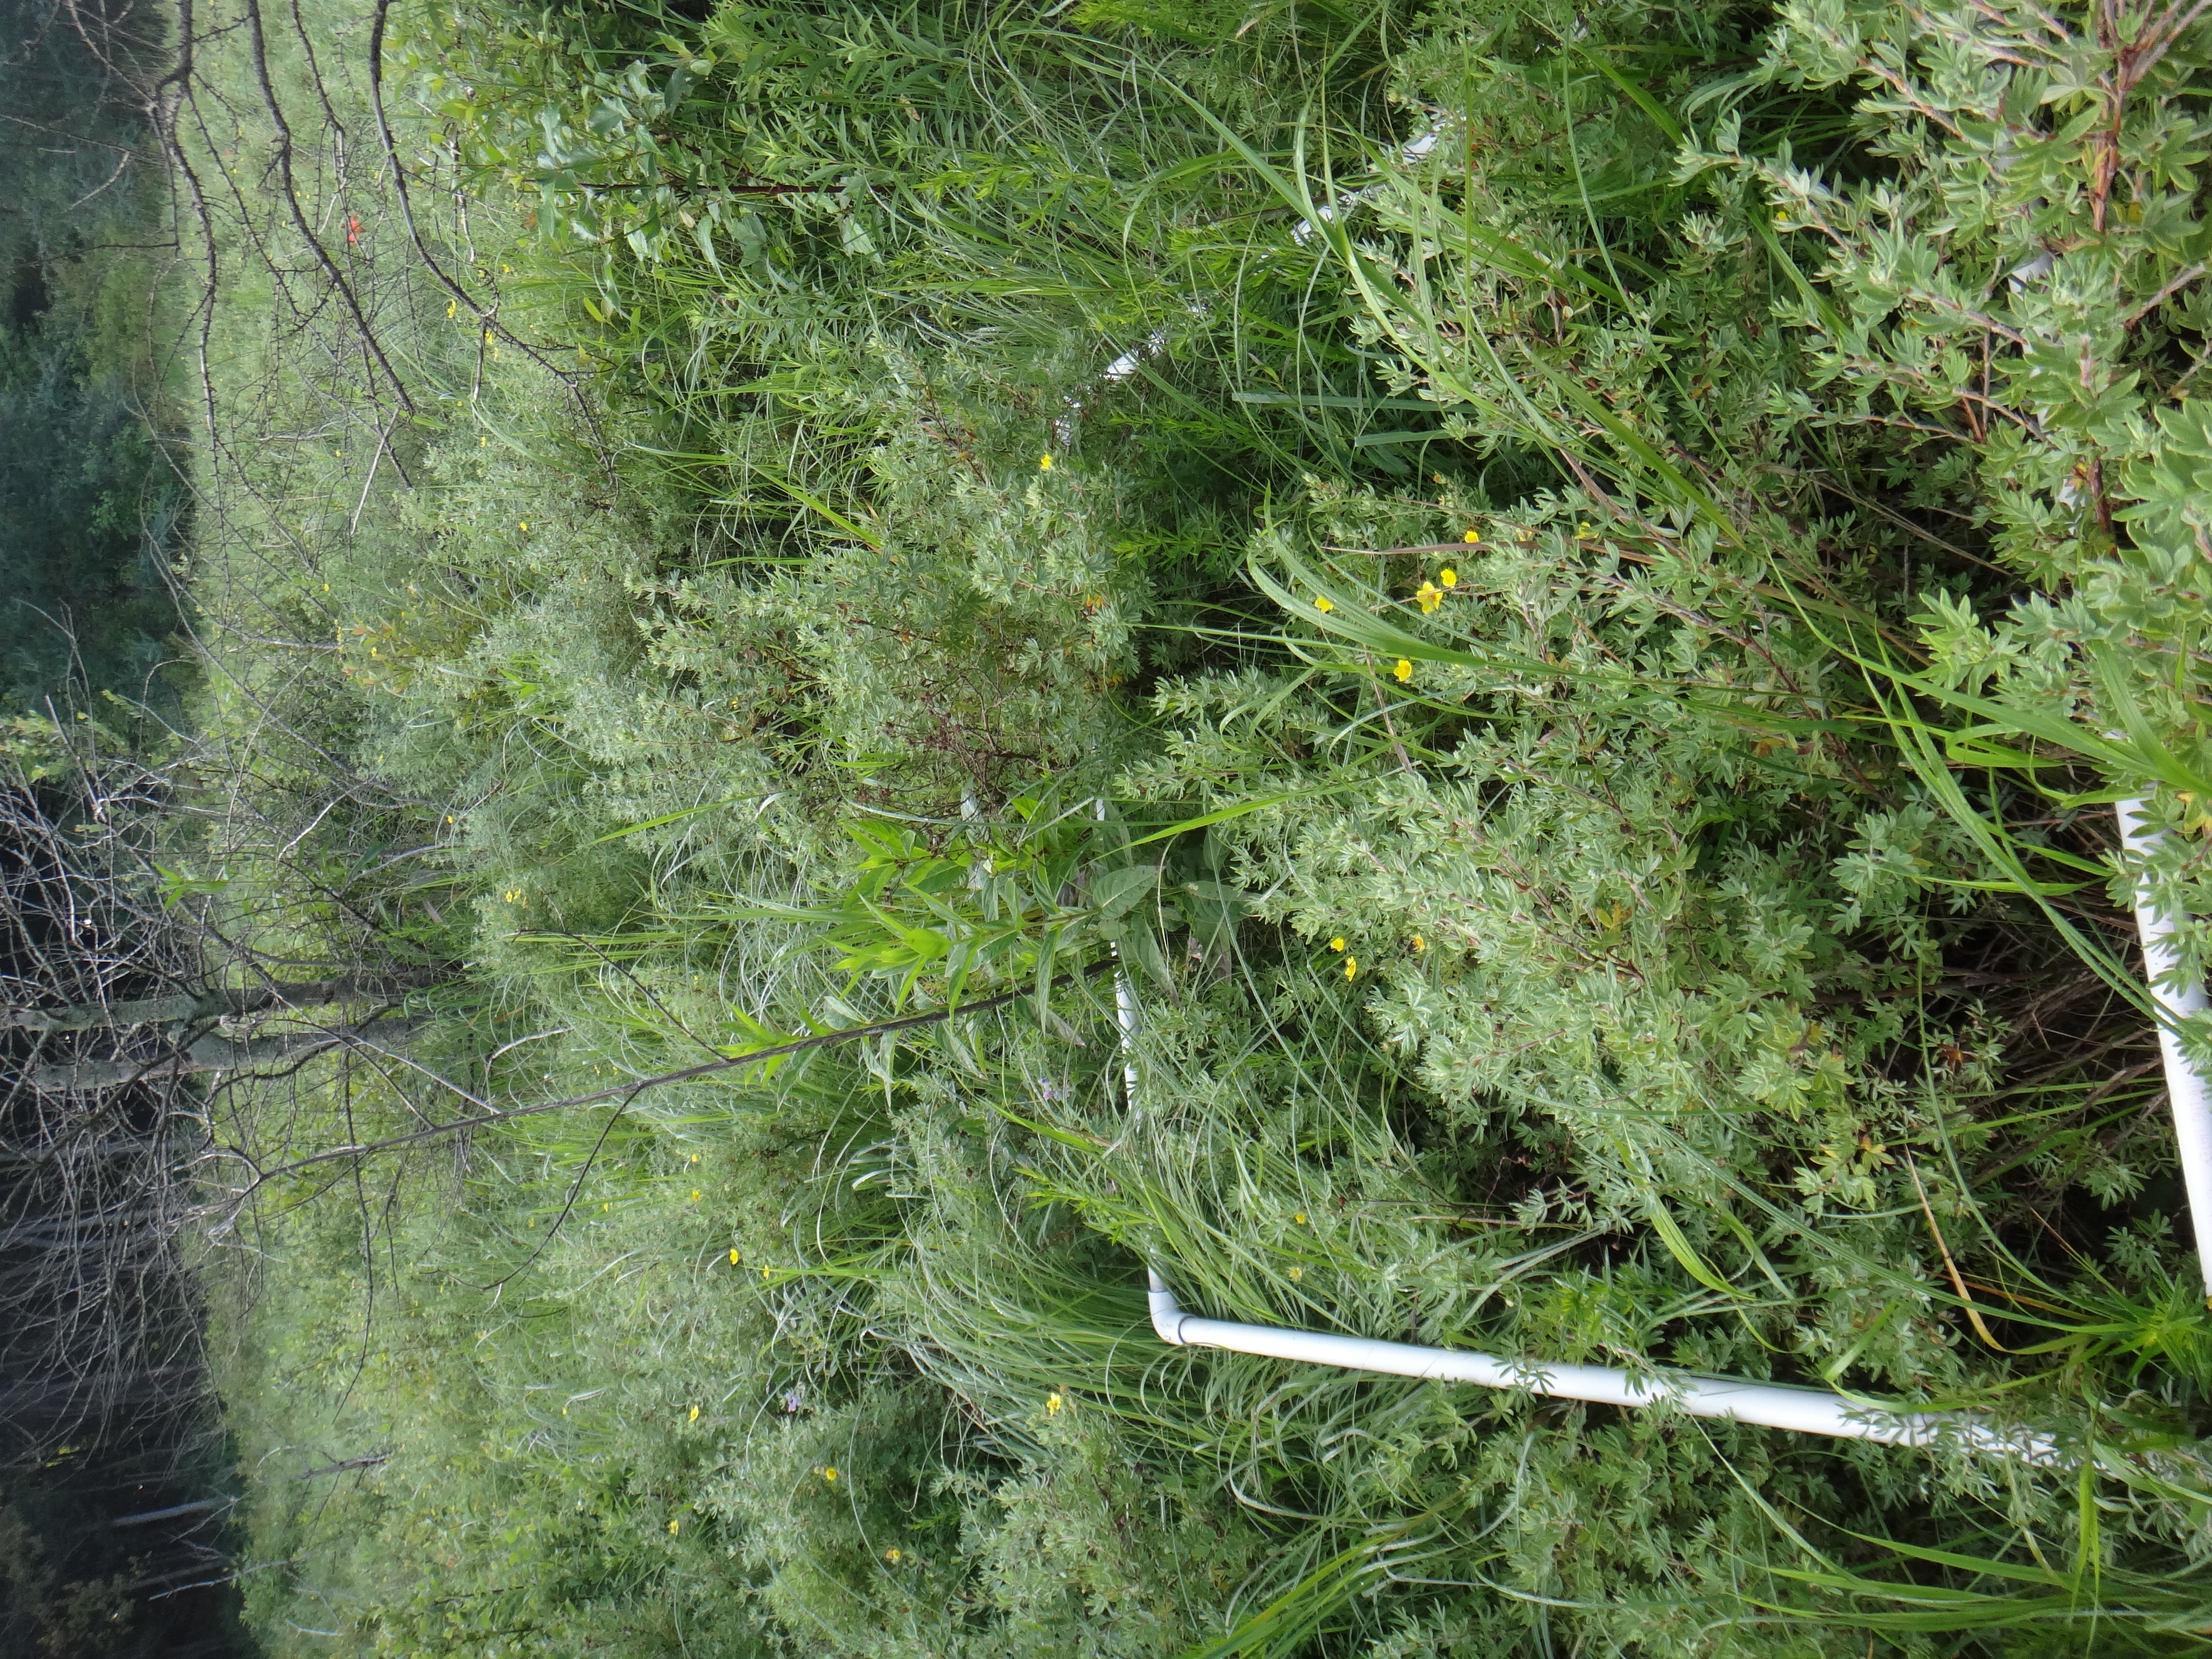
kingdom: Plantae
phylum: Tracheophyta
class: Magnoliopsida
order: Gentianales
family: Rubiaceae
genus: Galium
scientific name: Galium boreale
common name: Northern bedstraw
